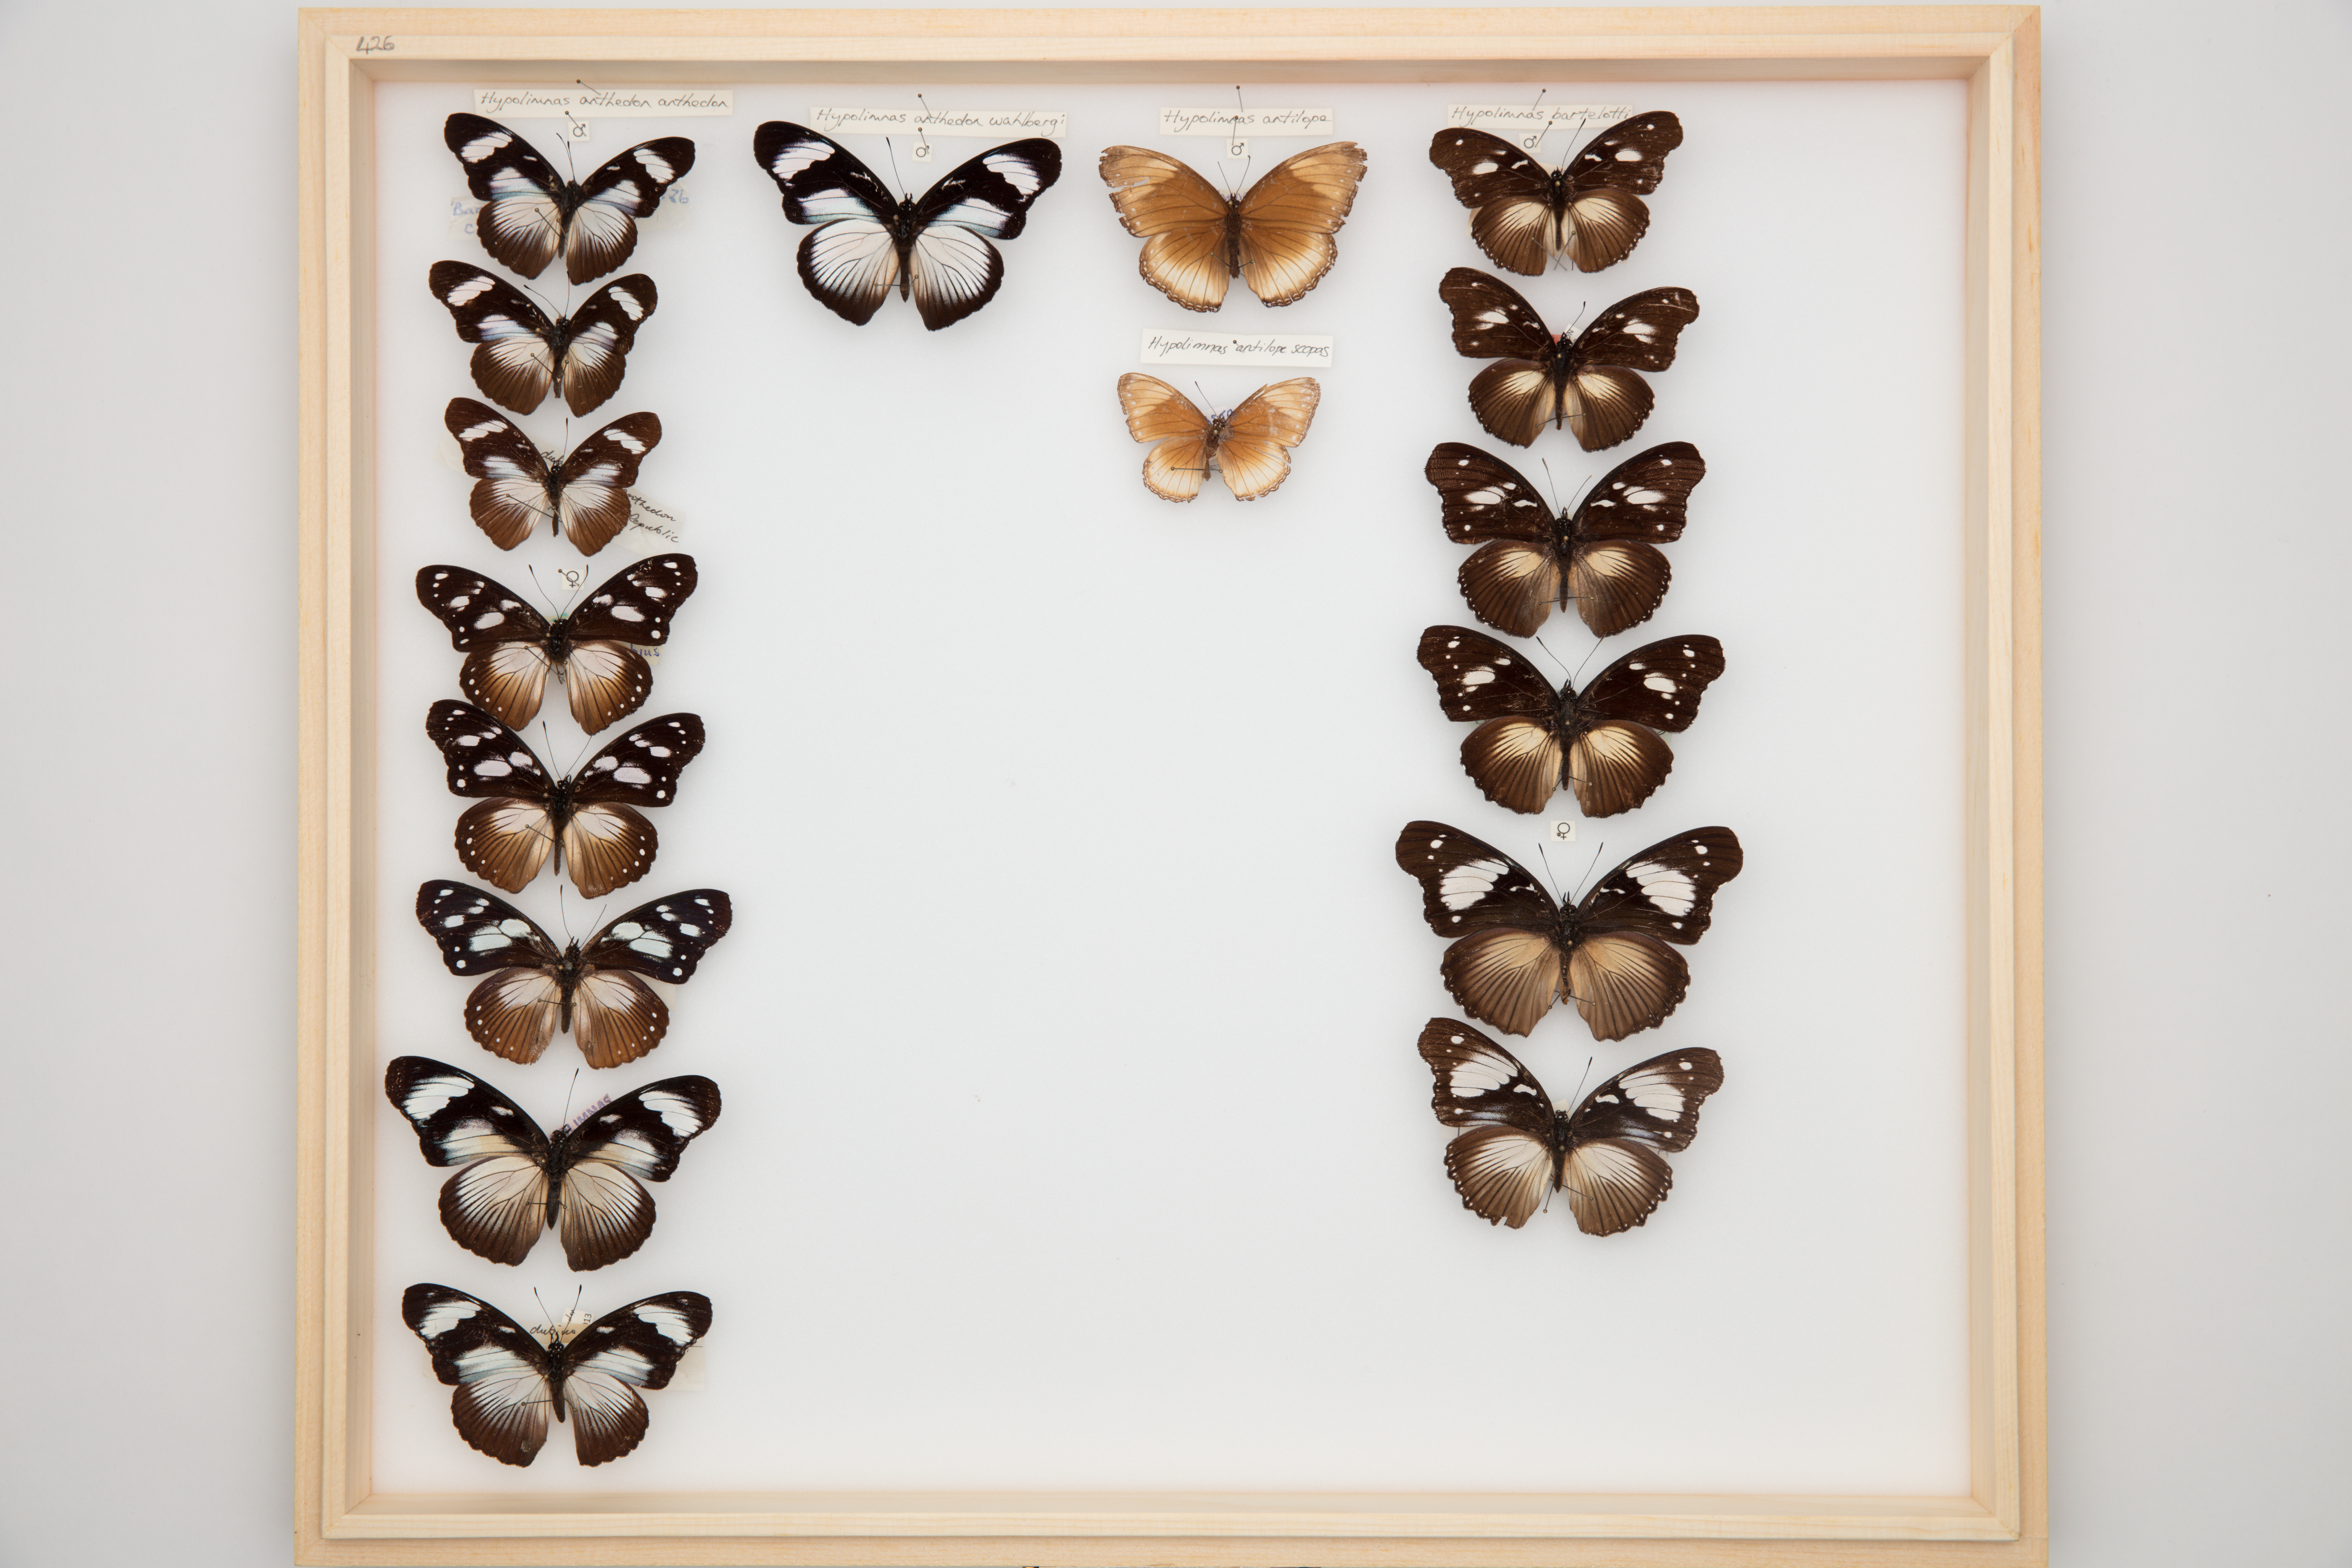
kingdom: Animalia
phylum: Arthropoda
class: Insecta
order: Lepidoptera
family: Nymphalidae
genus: Hypolimnas
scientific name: Hypolimnas dubius
